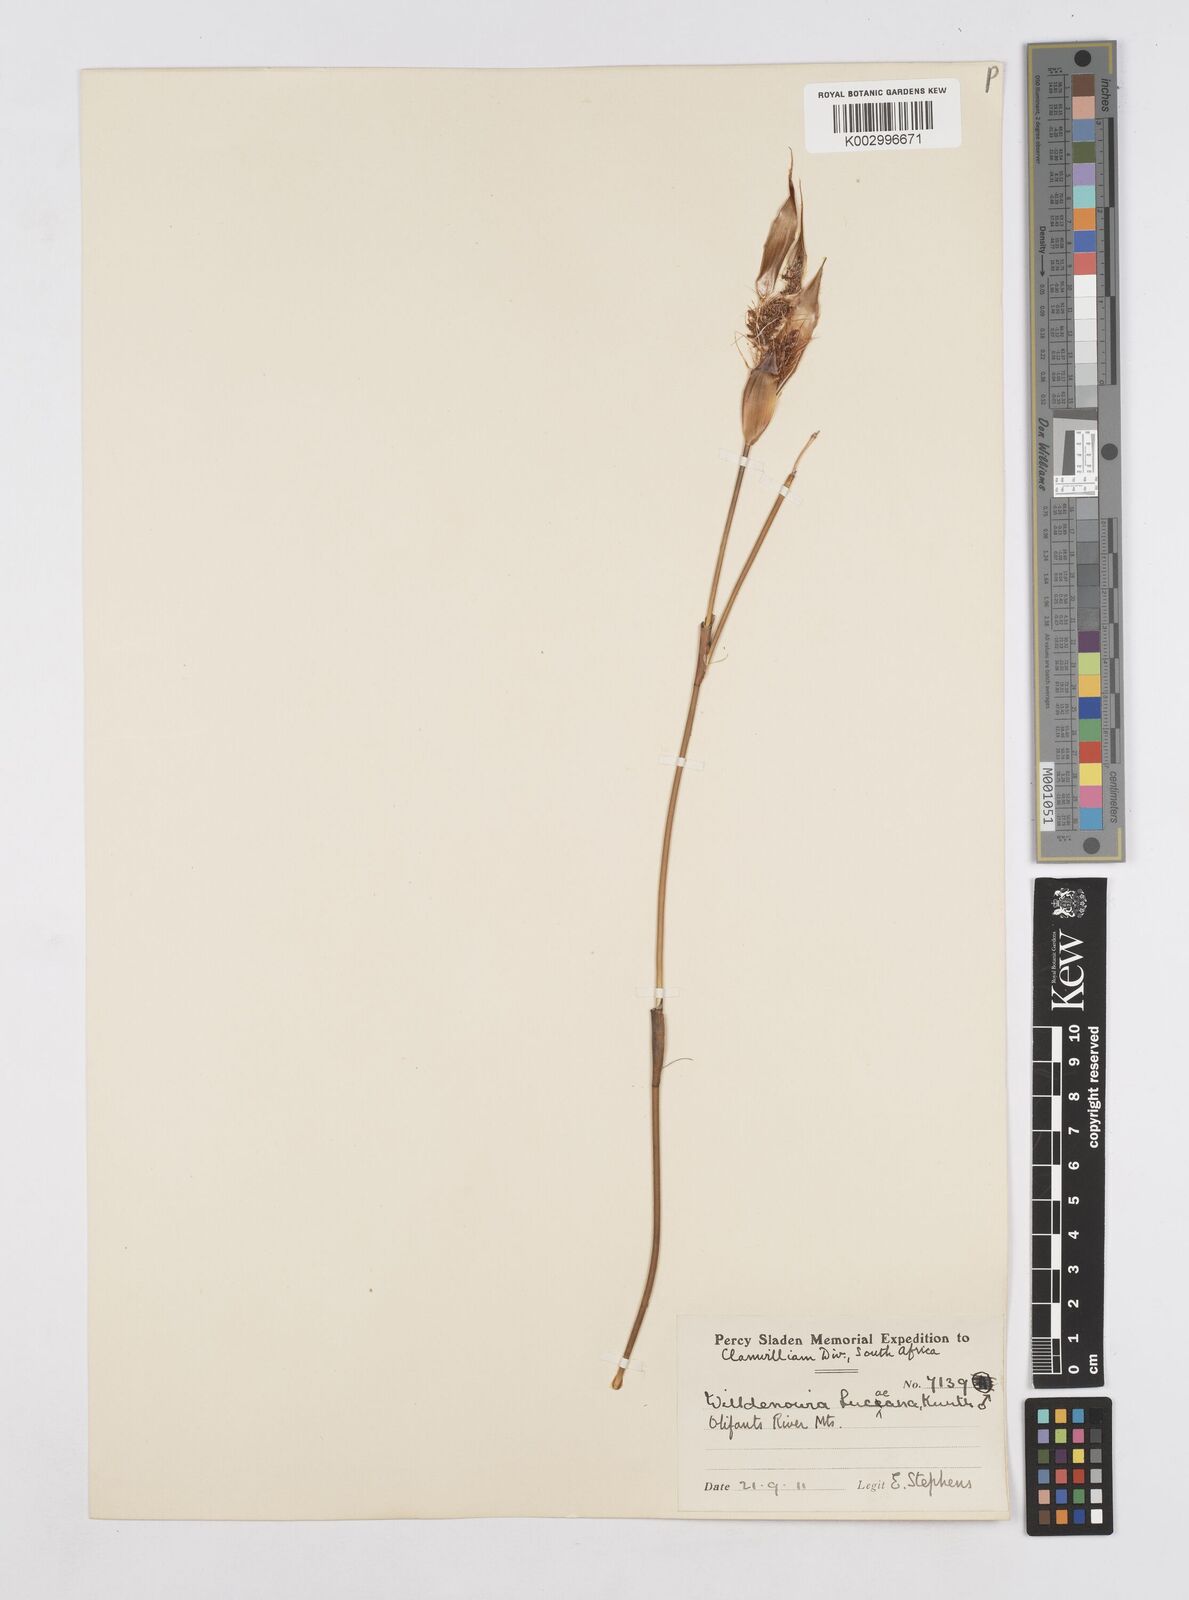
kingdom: Plantae
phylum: Tracheophyta
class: Liliopsida
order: Poales
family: Restionaceae
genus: Willdenowia
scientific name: Willdenowia glomerata
